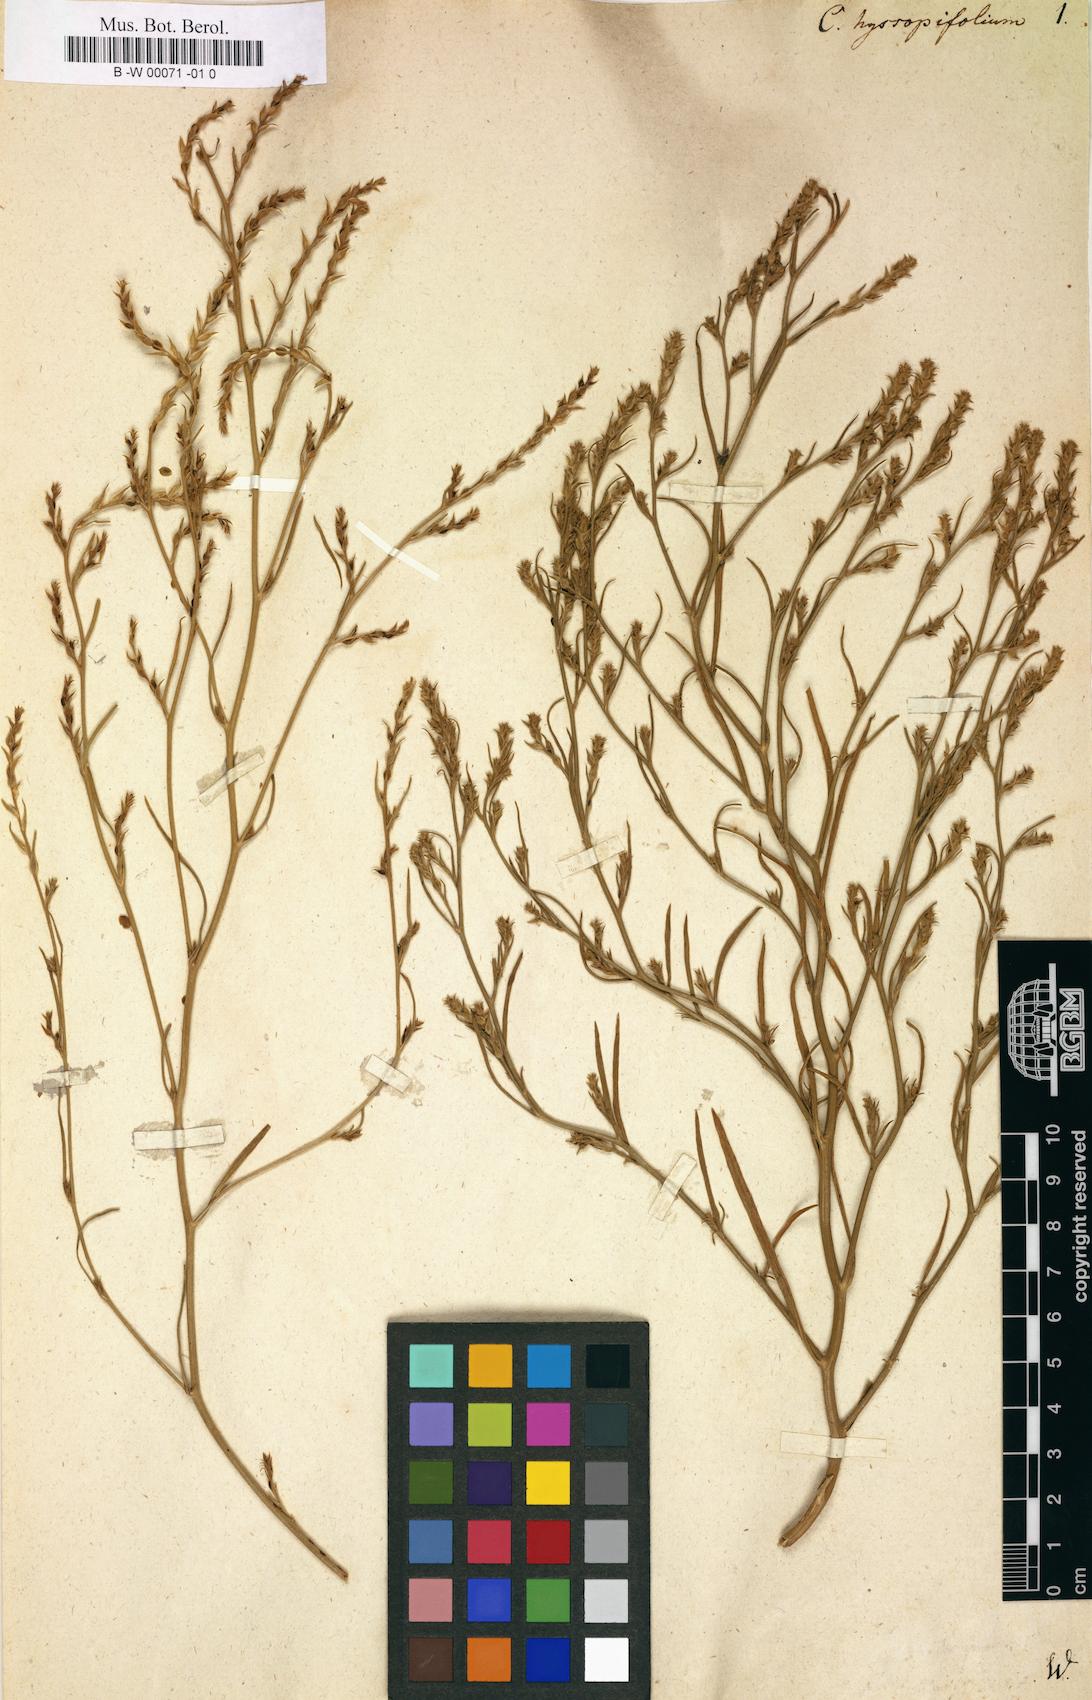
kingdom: Plantae
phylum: Tracheophyta
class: Magnoliopsida
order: Caryophyllales
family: Amaranthaceae
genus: Corispermum
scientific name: Corispermum hyssopifolium
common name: Bugseed
